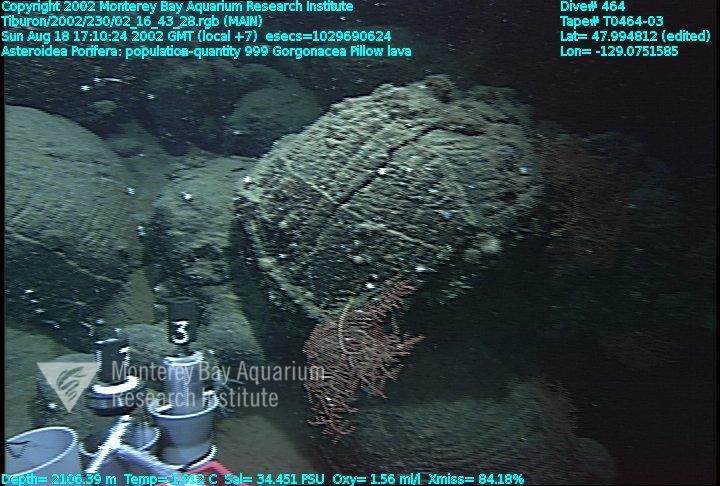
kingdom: Animalia
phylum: Porifera
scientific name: Porifera
